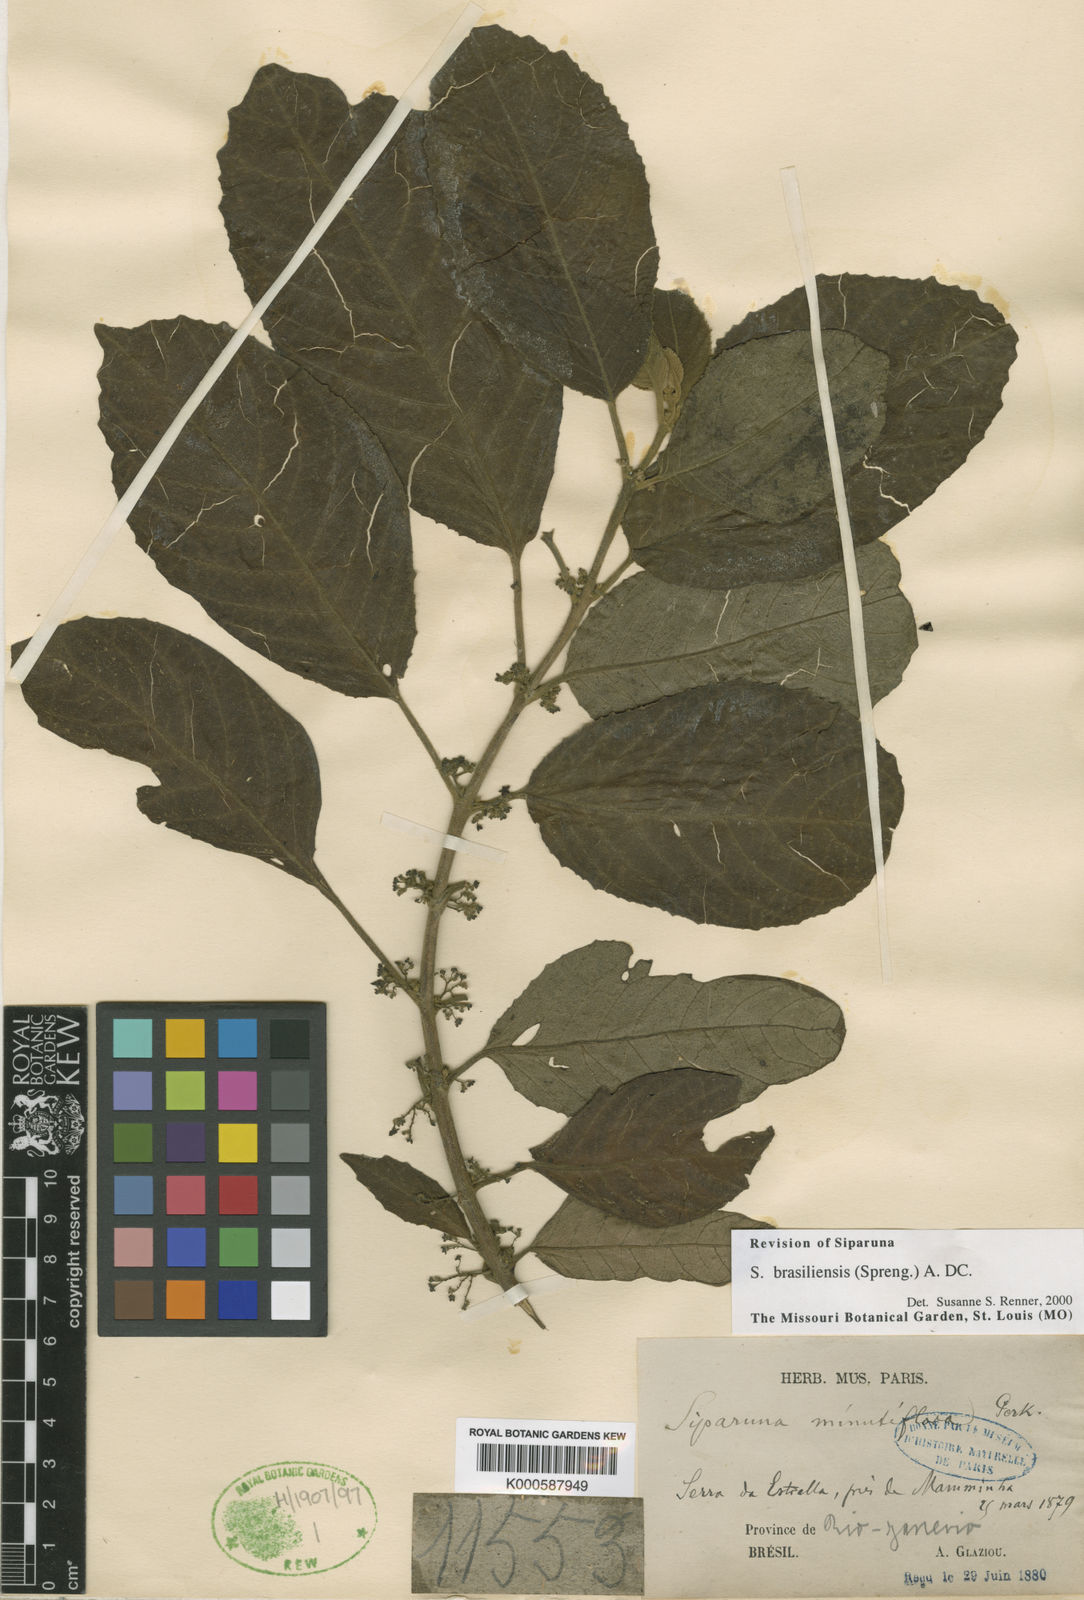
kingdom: Plantae
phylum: Tracheophyta
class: Magnoliopsida
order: Laurales
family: Siparunaceae
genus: Siparuna
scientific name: Siparuna brasiliensis
